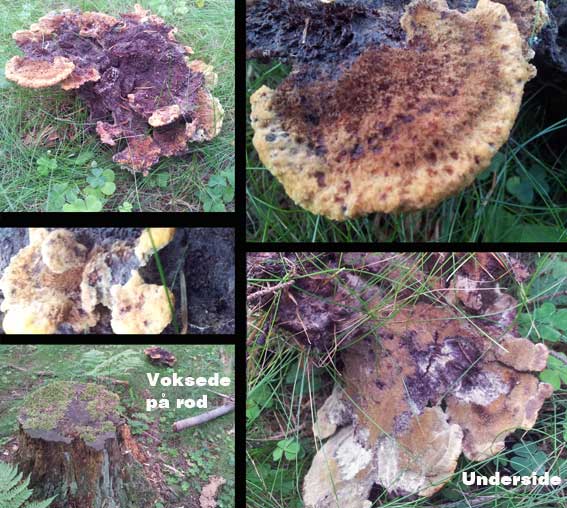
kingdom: Fungi
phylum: Basidiomycota
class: Agaricomycetes
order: Polyporales
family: Laetiporaceae
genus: Phaeolus
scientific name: Phaeolus schweinitzii
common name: brunporesvamp
